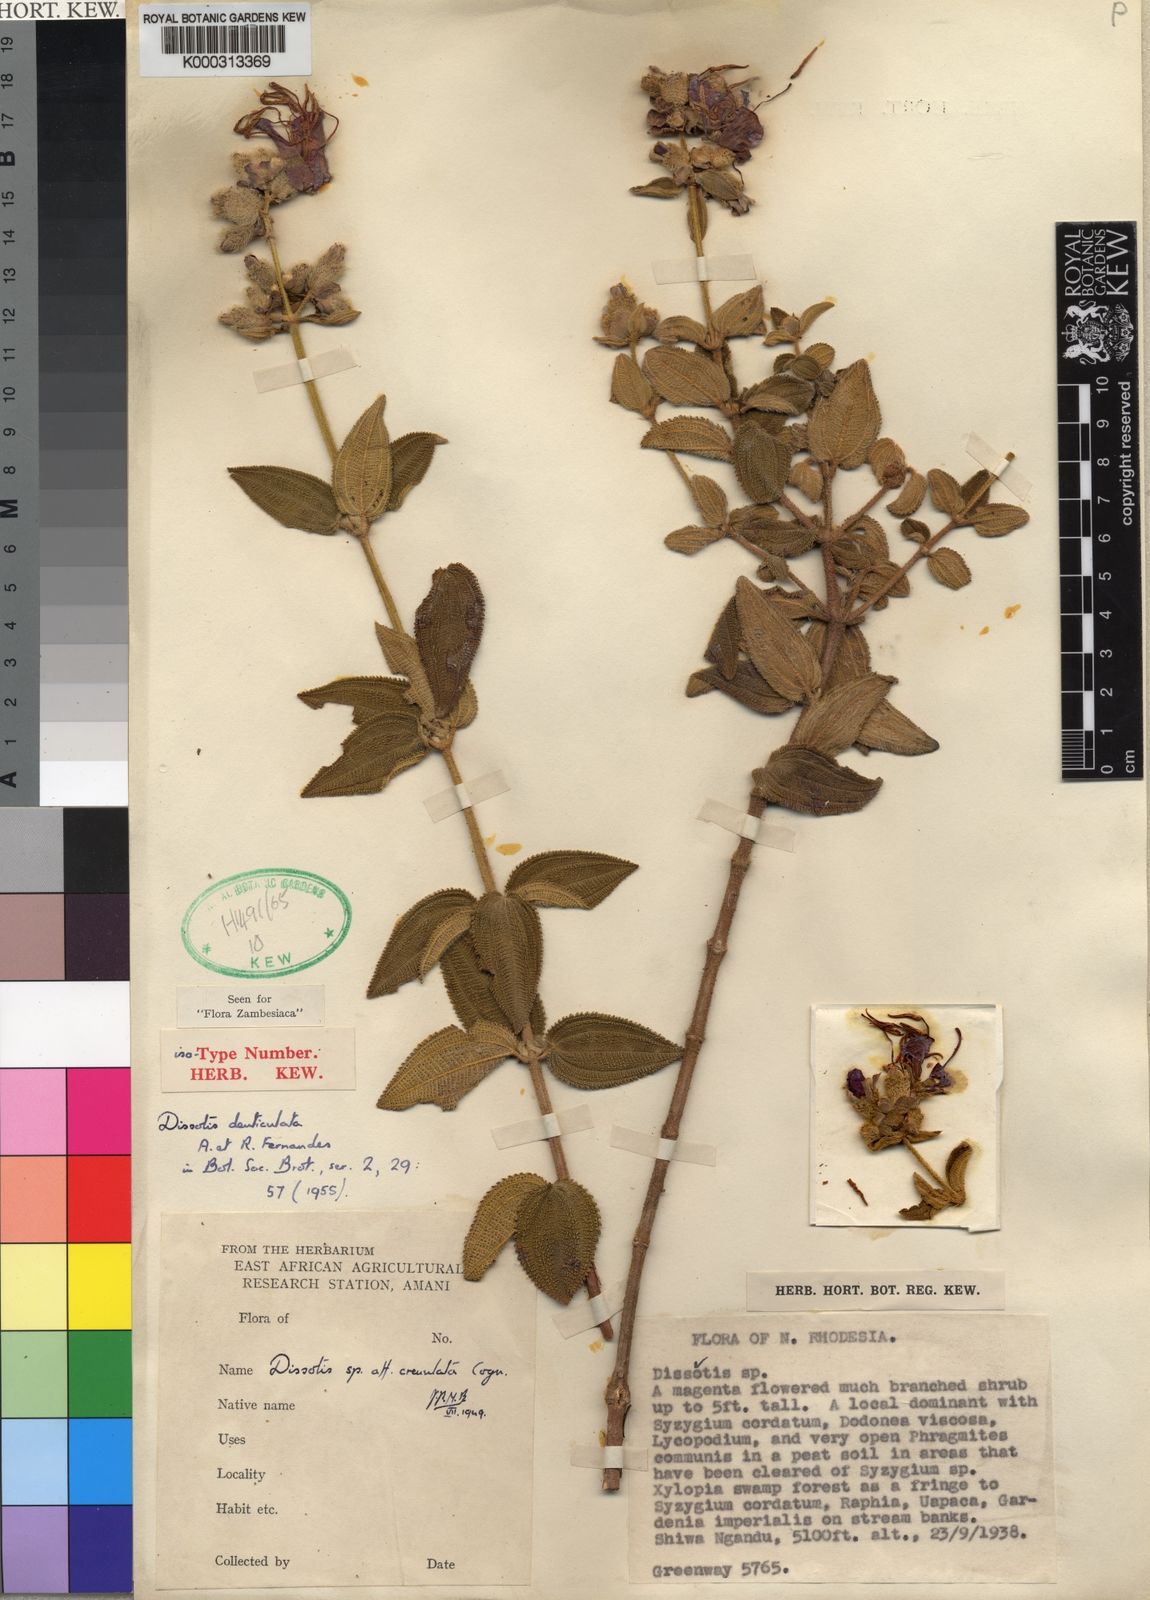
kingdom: Plantae
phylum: Tracheophyta
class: Magnoliopsida
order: Myrtales
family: Melastomataceae
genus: Rosettea
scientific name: Rosettea denticulata
